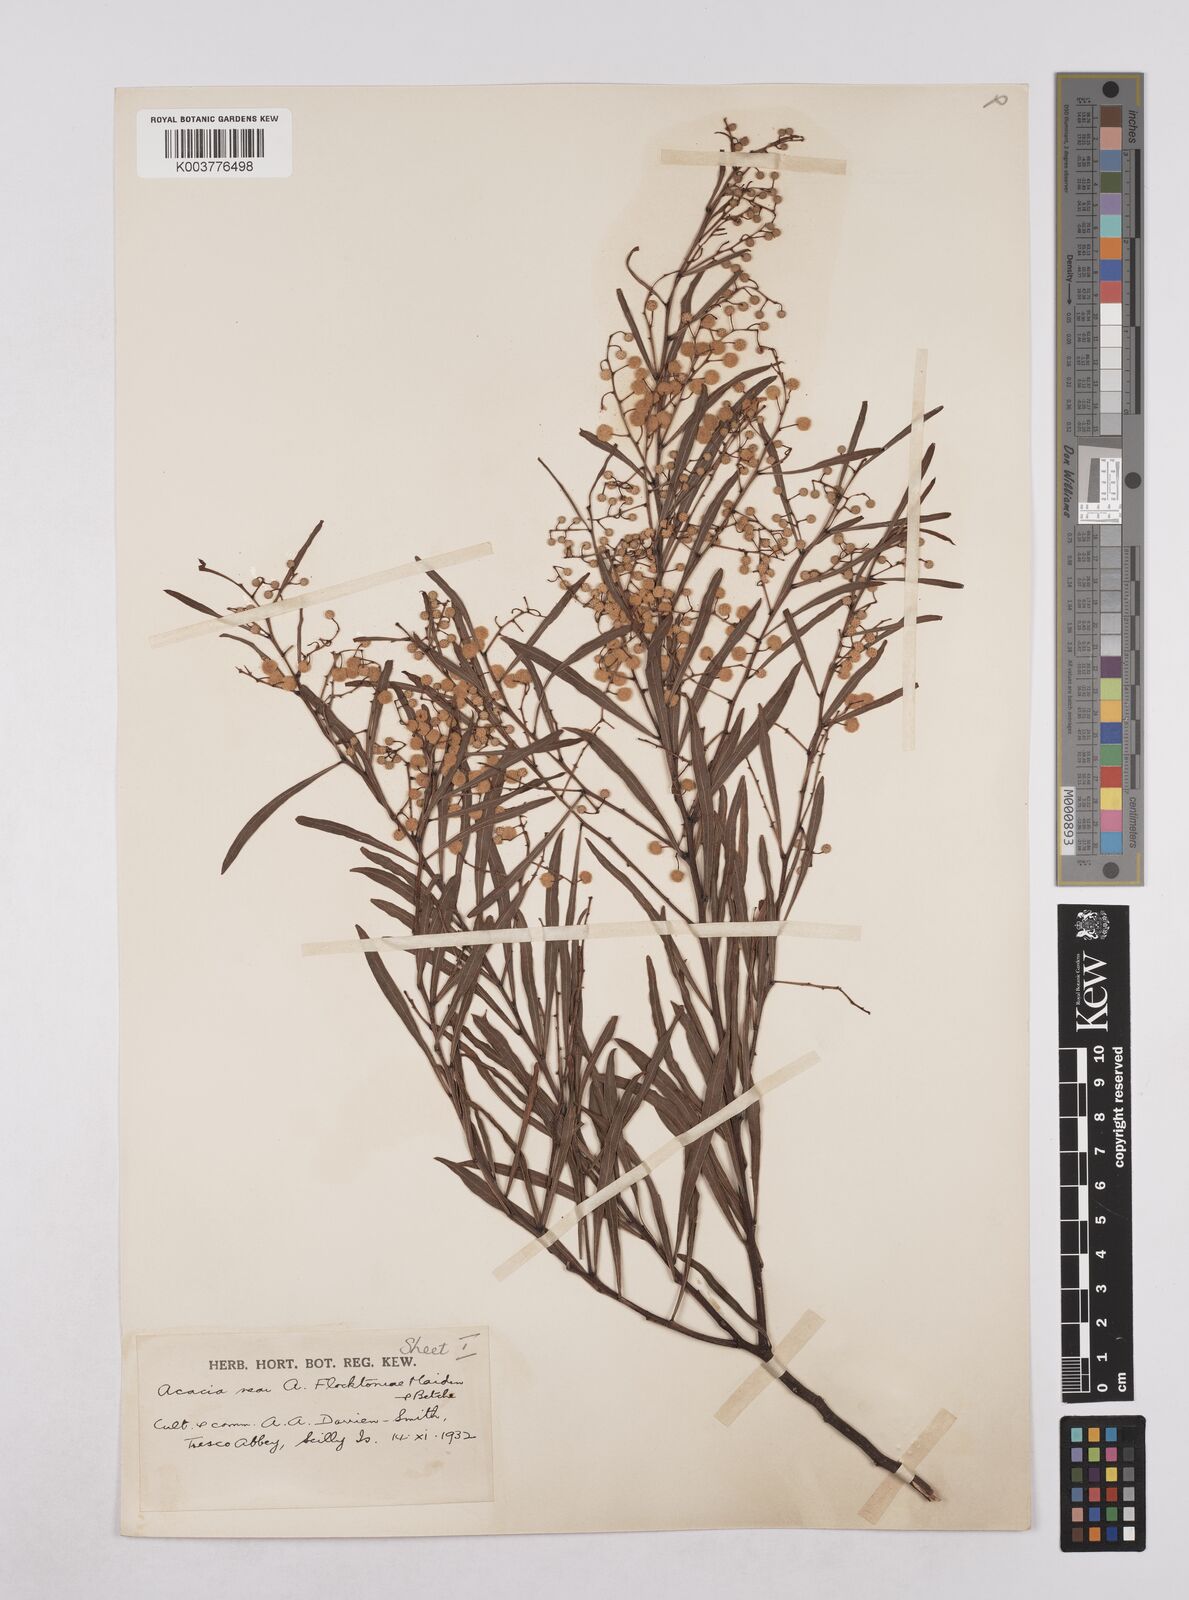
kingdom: Plantae
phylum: Tracheophyta
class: Magnoliopsida
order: Fabales
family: Fabaceae
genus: Acacia
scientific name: Acacia flocktoniae
